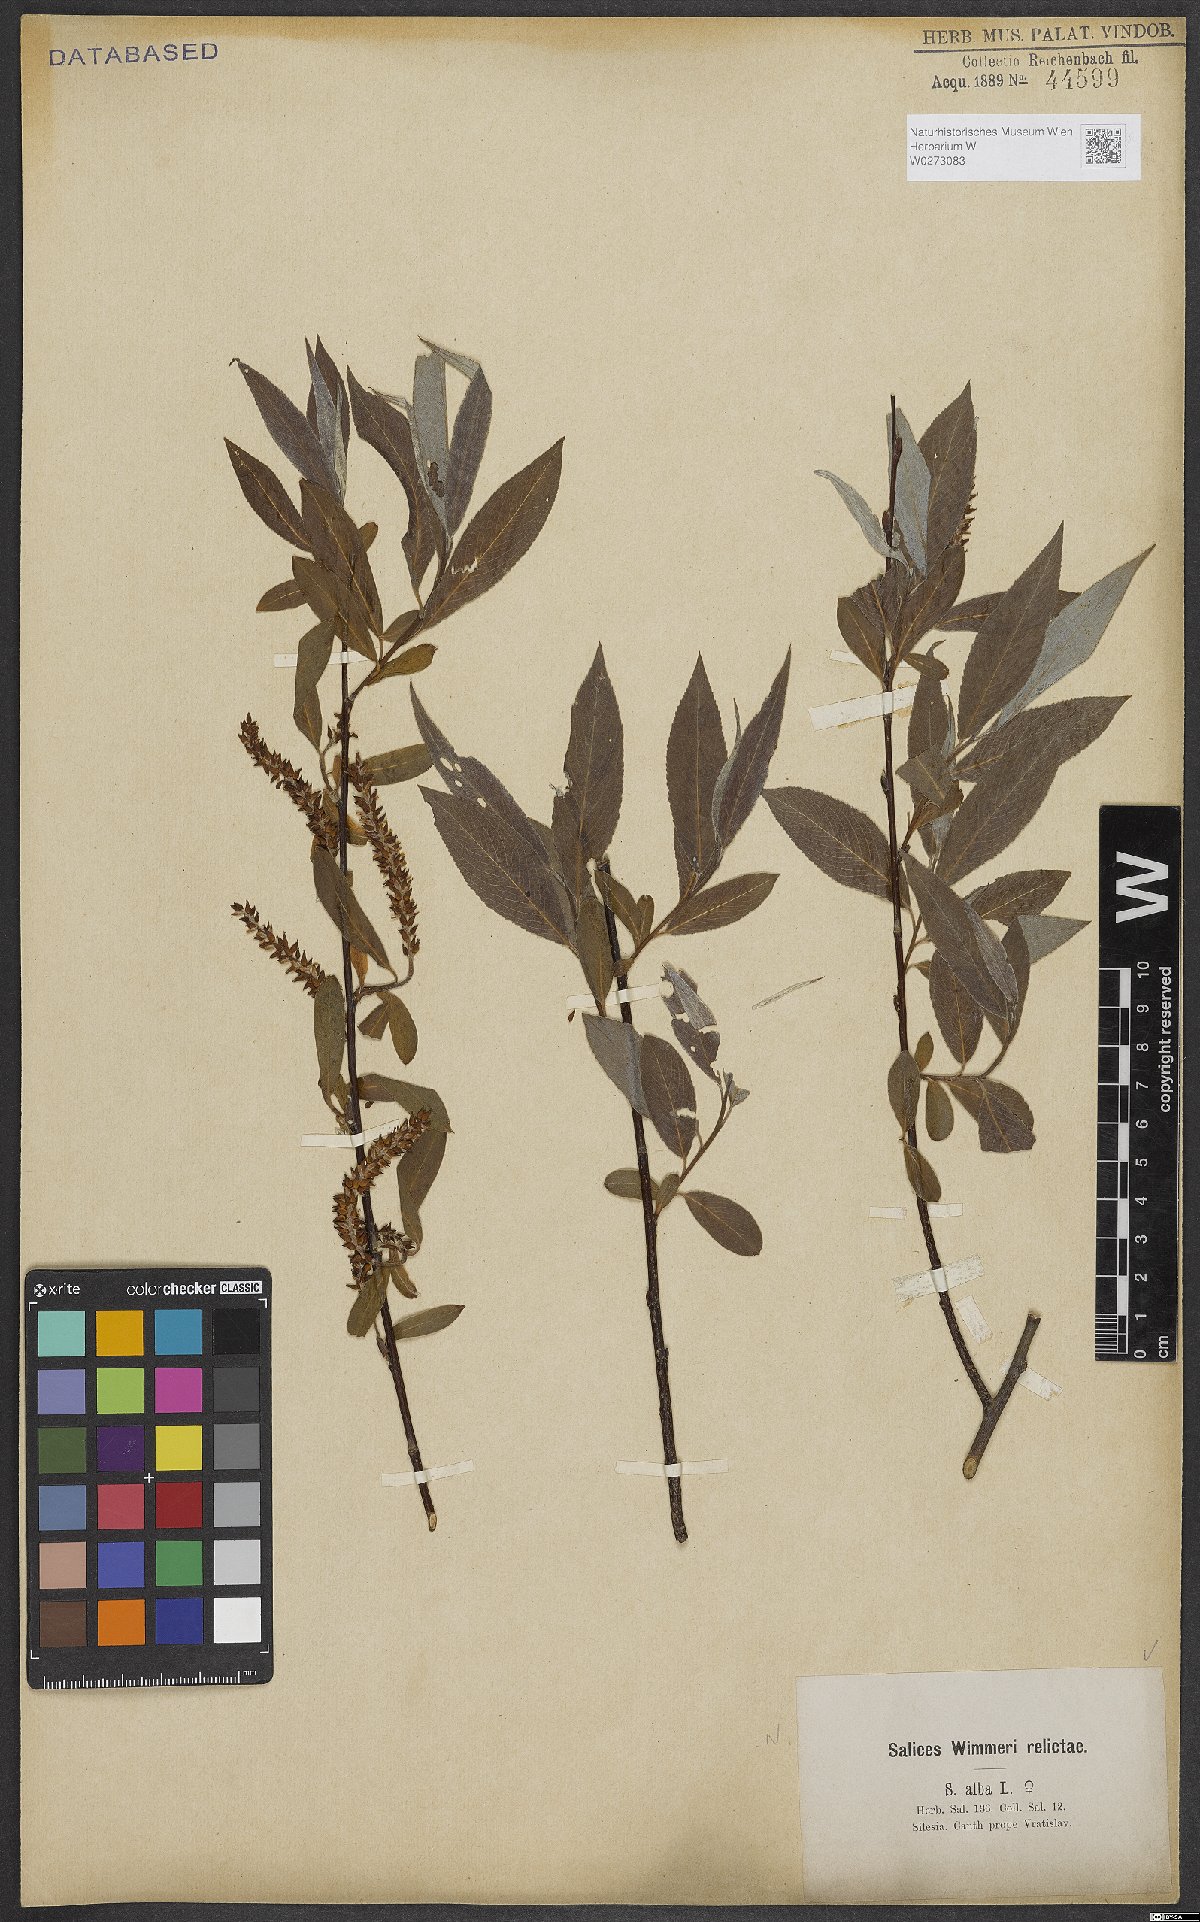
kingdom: Plantae
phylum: Tracheophyta
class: Magnoliopsida
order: Malpighiales
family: Salicaceae
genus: Salix
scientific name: Salix alba
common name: White willow
